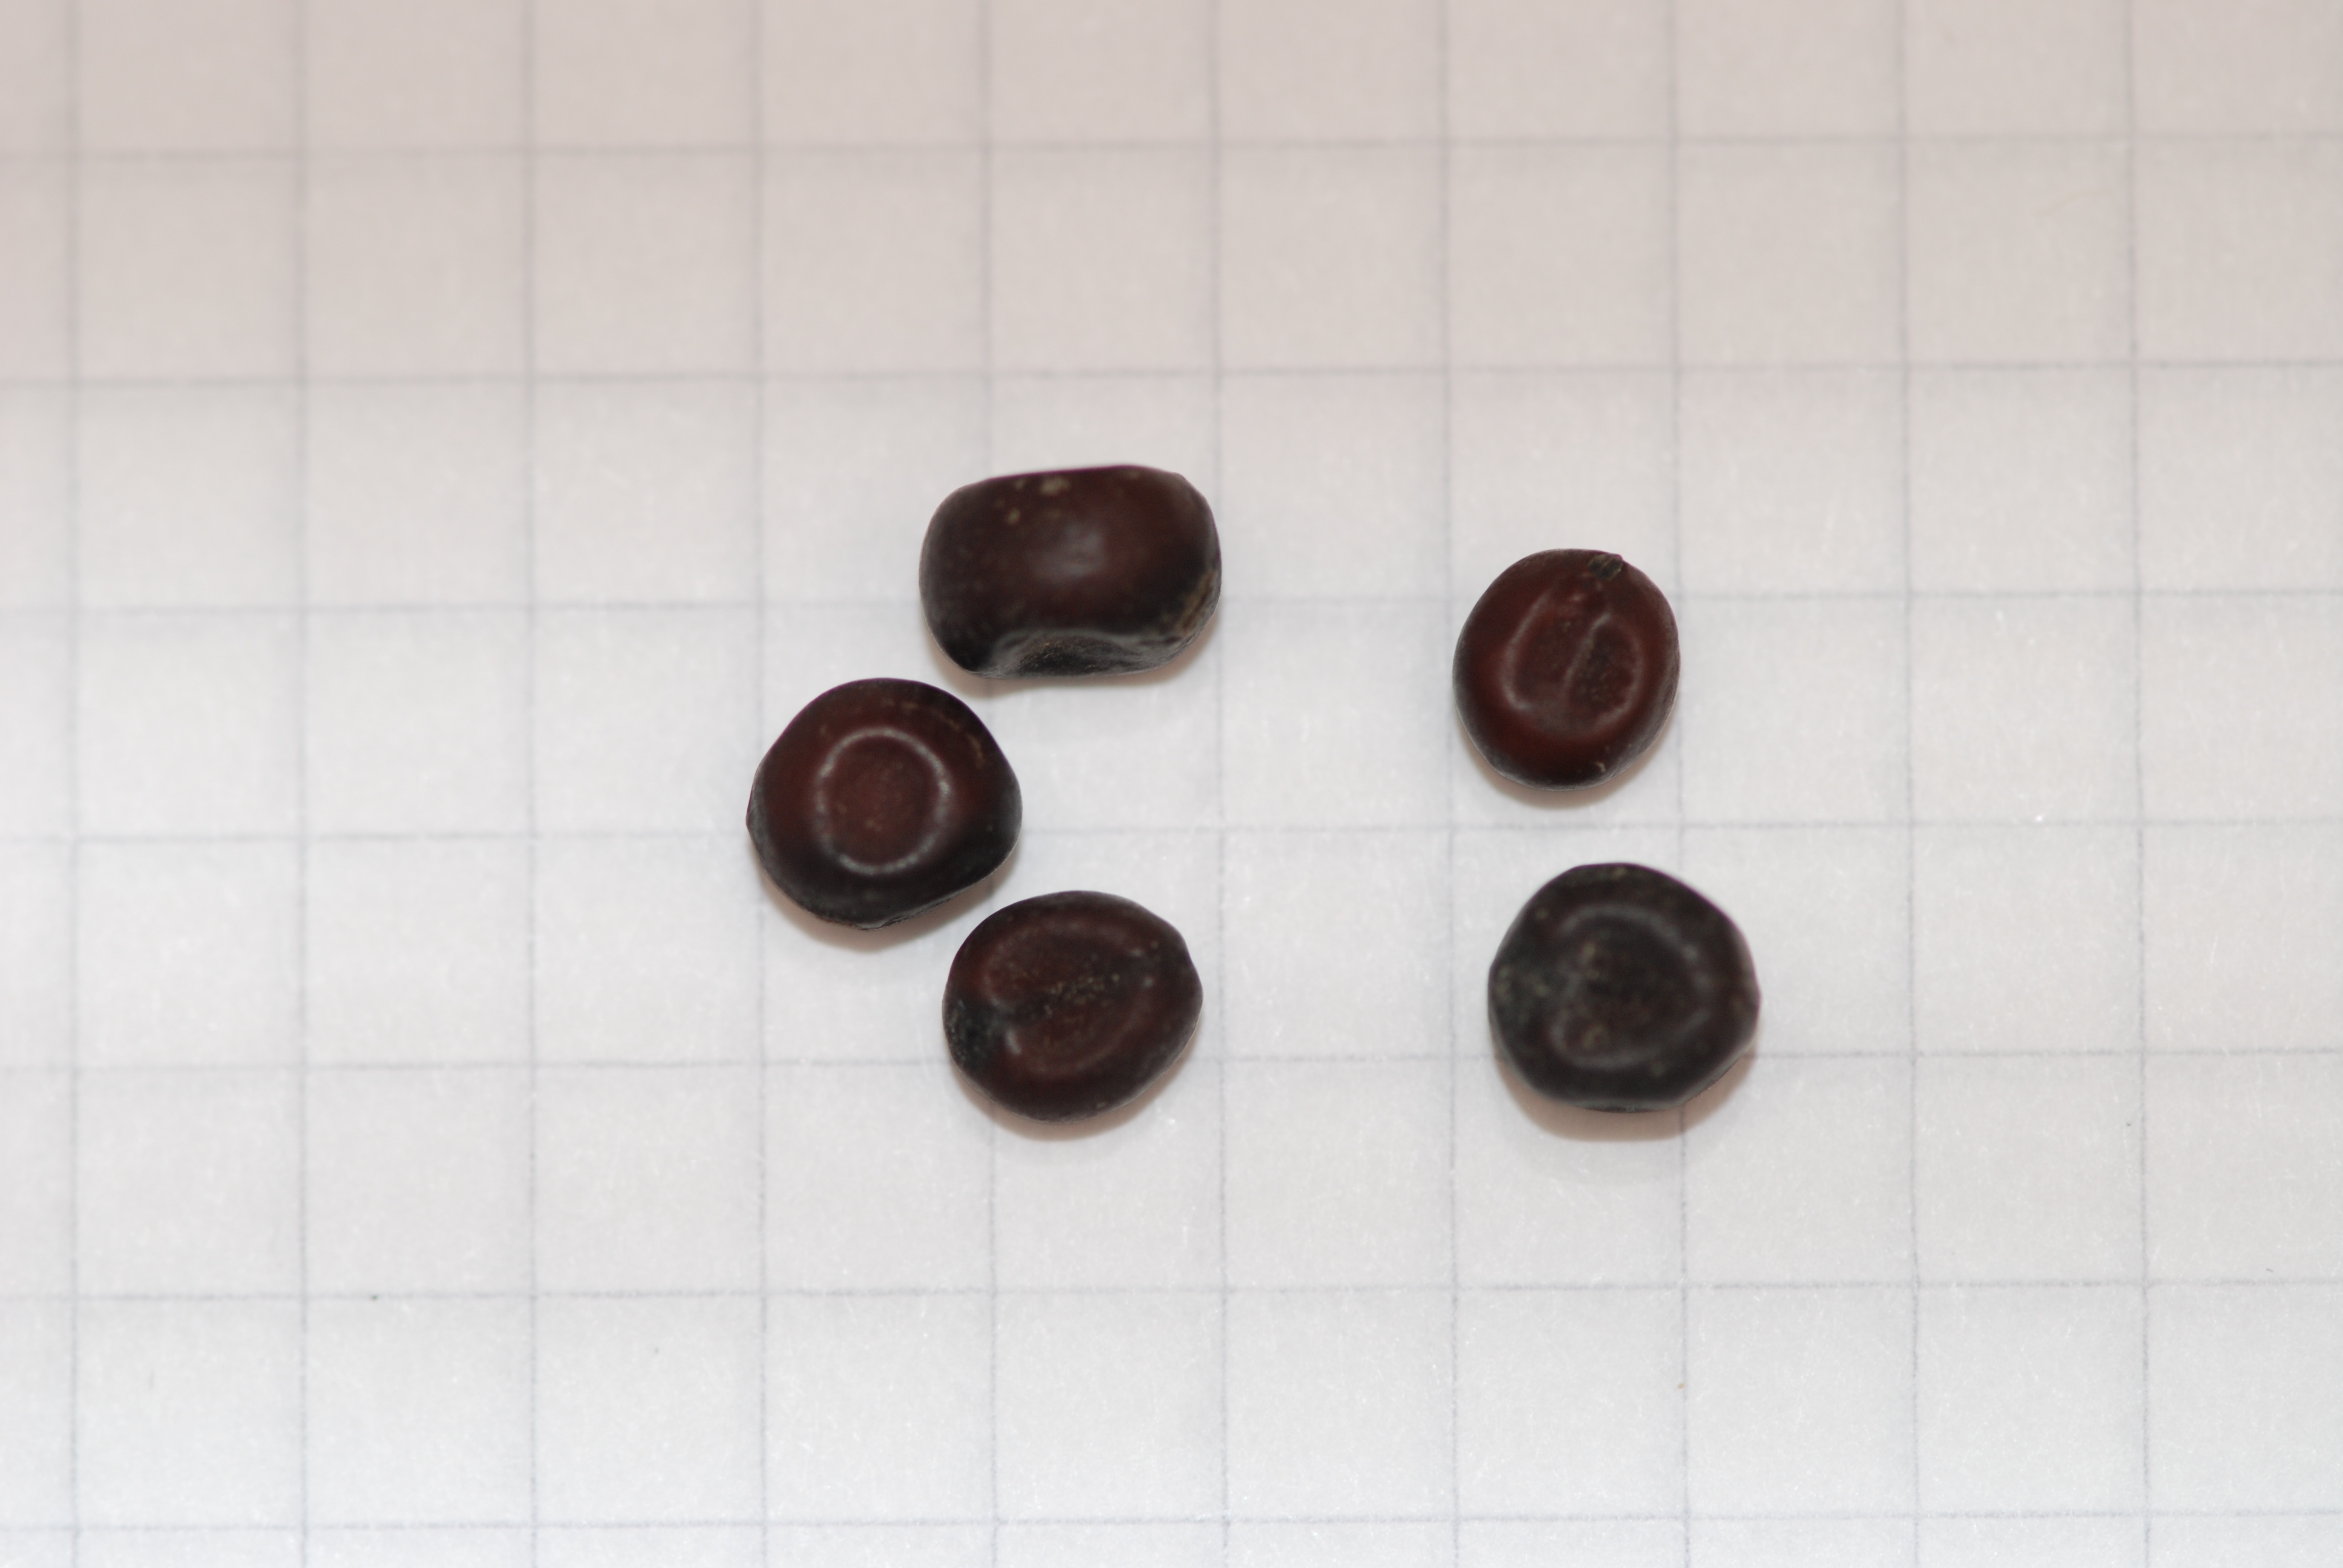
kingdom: Plantae
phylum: Tracheophyta
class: Magnoliopsida
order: Fabales
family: Fabaceae
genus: Lathyrus
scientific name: Lathyrus oleraceus
